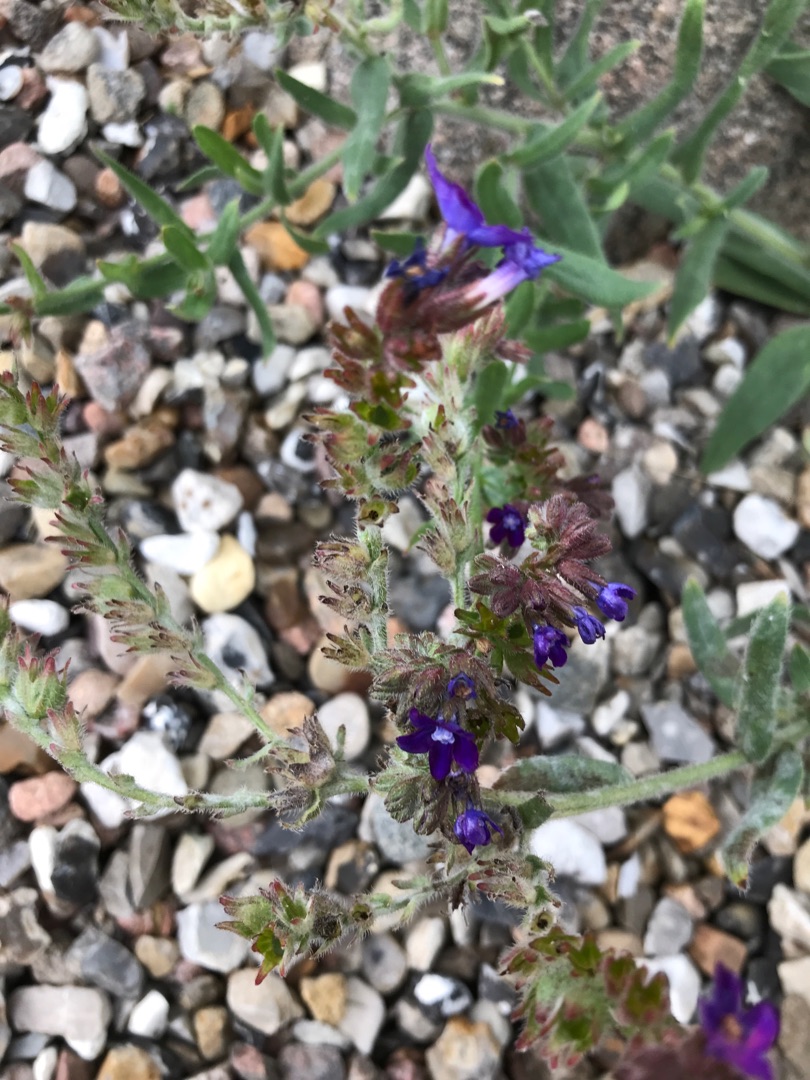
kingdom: Plantae
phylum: Tracheophyta
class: Magnoliopsida
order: Boraginales
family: Boraginaceae
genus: Anchusa
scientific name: Anchusa officinalis
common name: Læge-oksetunge
